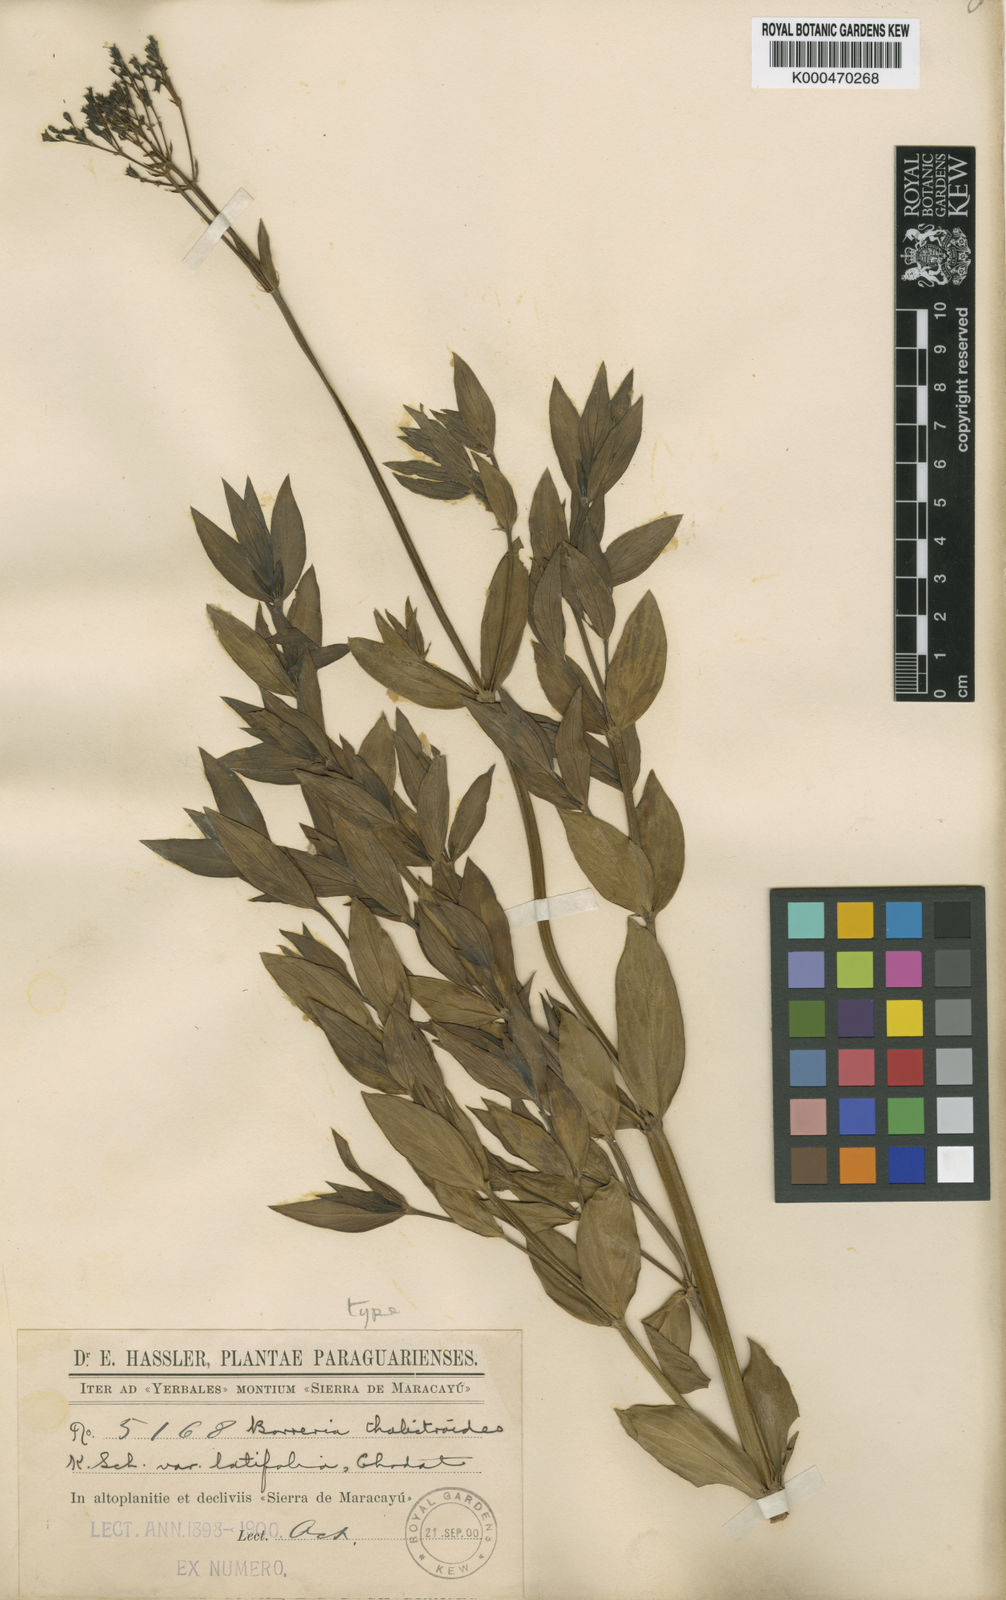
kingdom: Plantae
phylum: Tracheophyta
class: Magnoliopsida
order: Gentianales
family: Rubiaceae
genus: Galianthe
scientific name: Galianthe chodatiana
